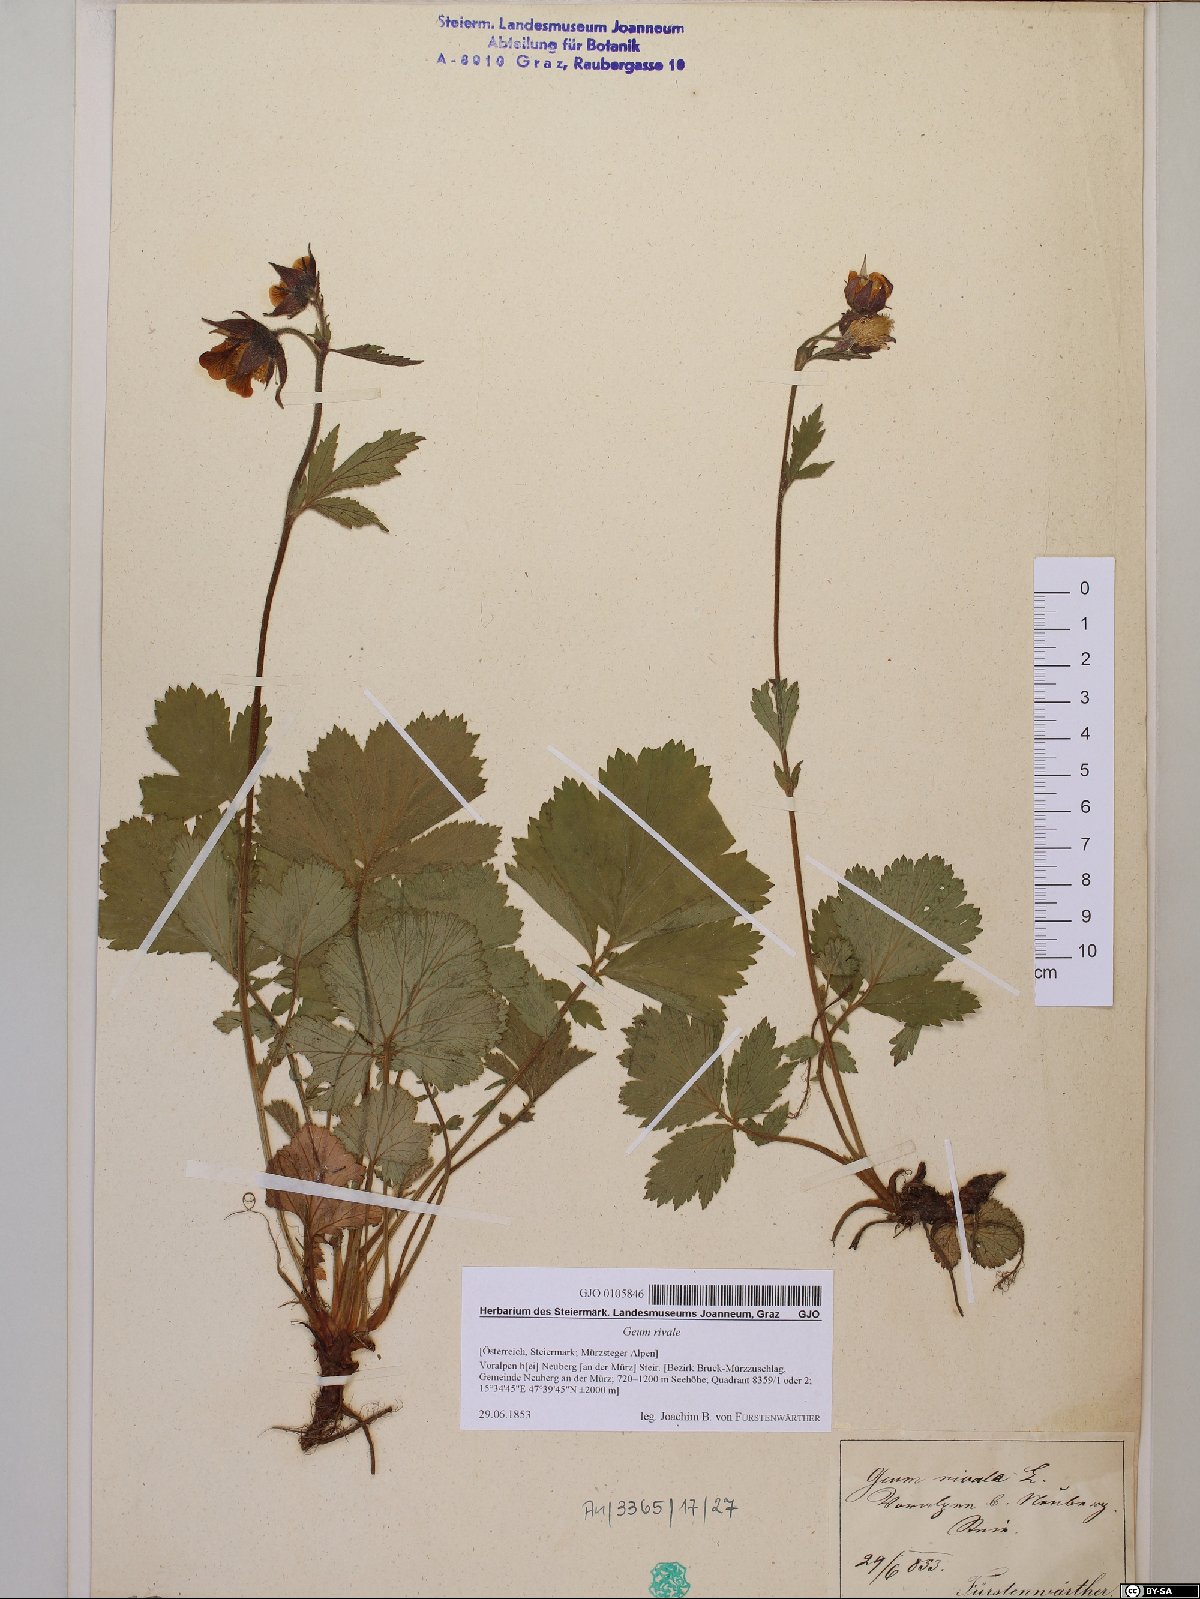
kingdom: Plantae
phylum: Tracheophyta
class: Magnoliopsida
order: Rosales
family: Rosaceae
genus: Geum
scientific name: Geum rivale
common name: Water avens
